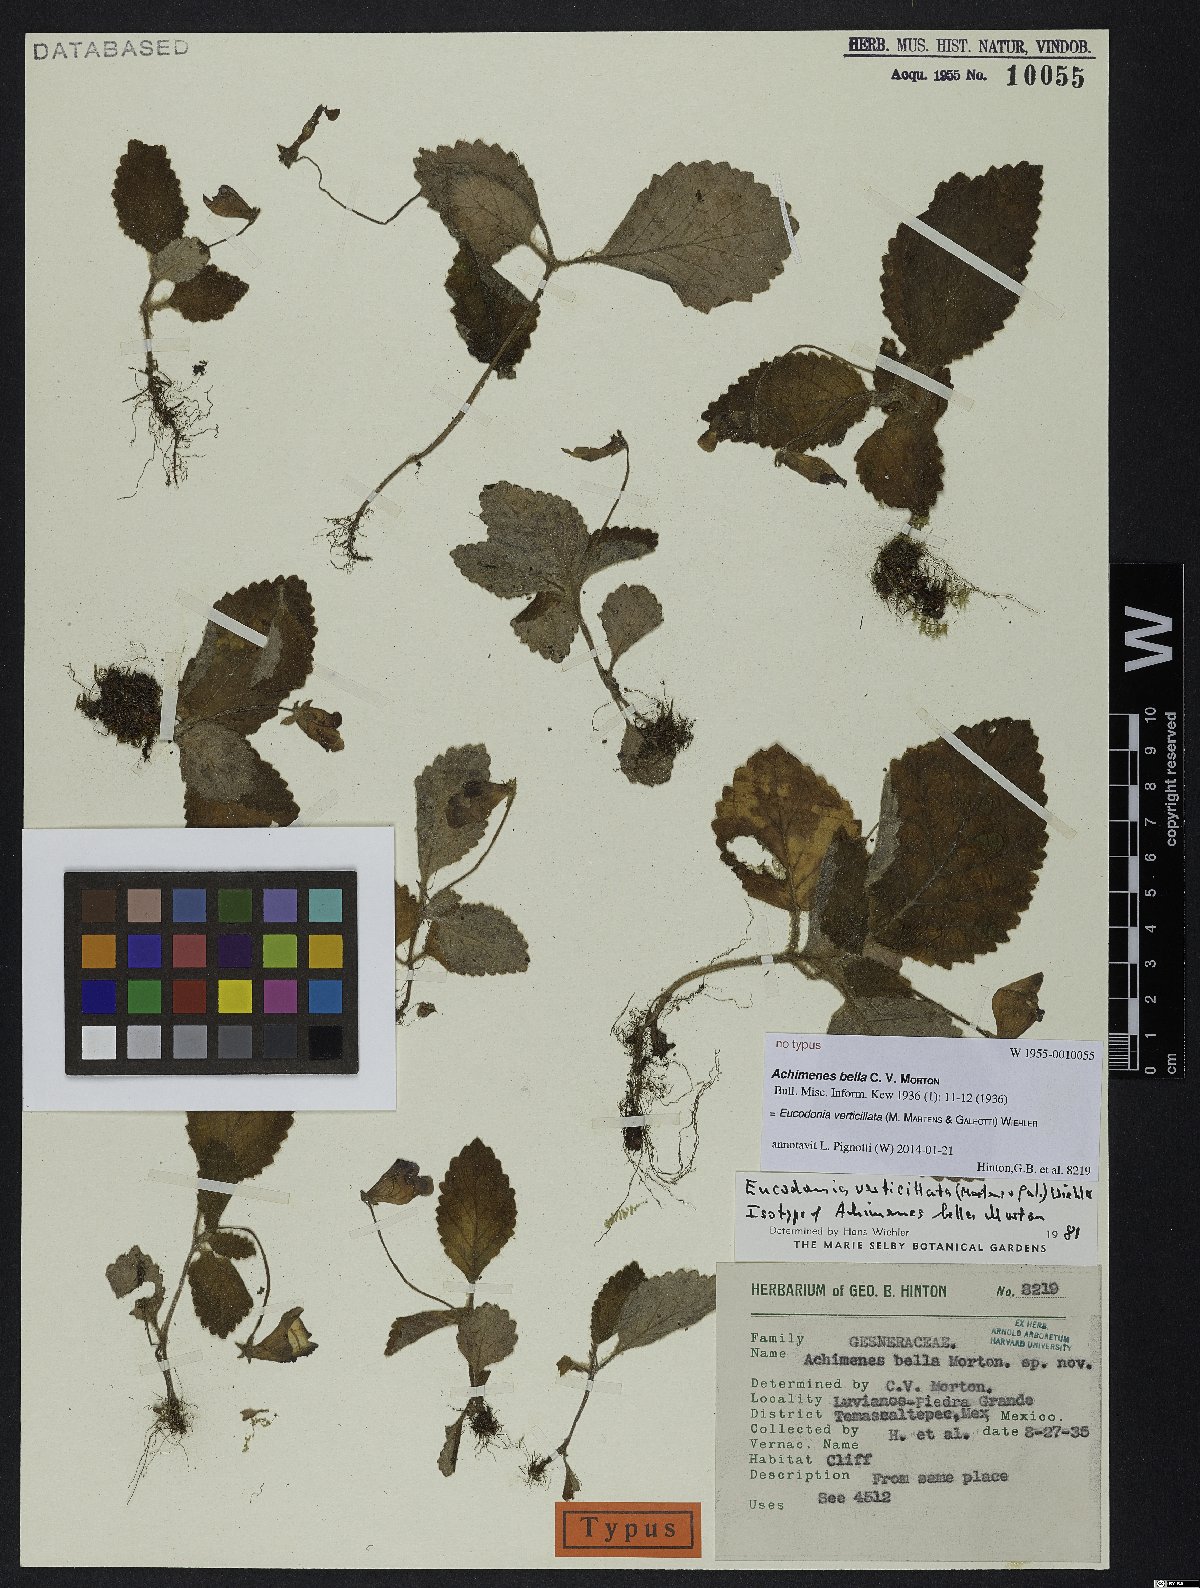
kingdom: Plantae
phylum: Tracheophyta
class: Magnoliopsida
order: Lamiales
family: Gesneriaceae
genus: Eucodonia
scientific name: Eucodonia verticillata
